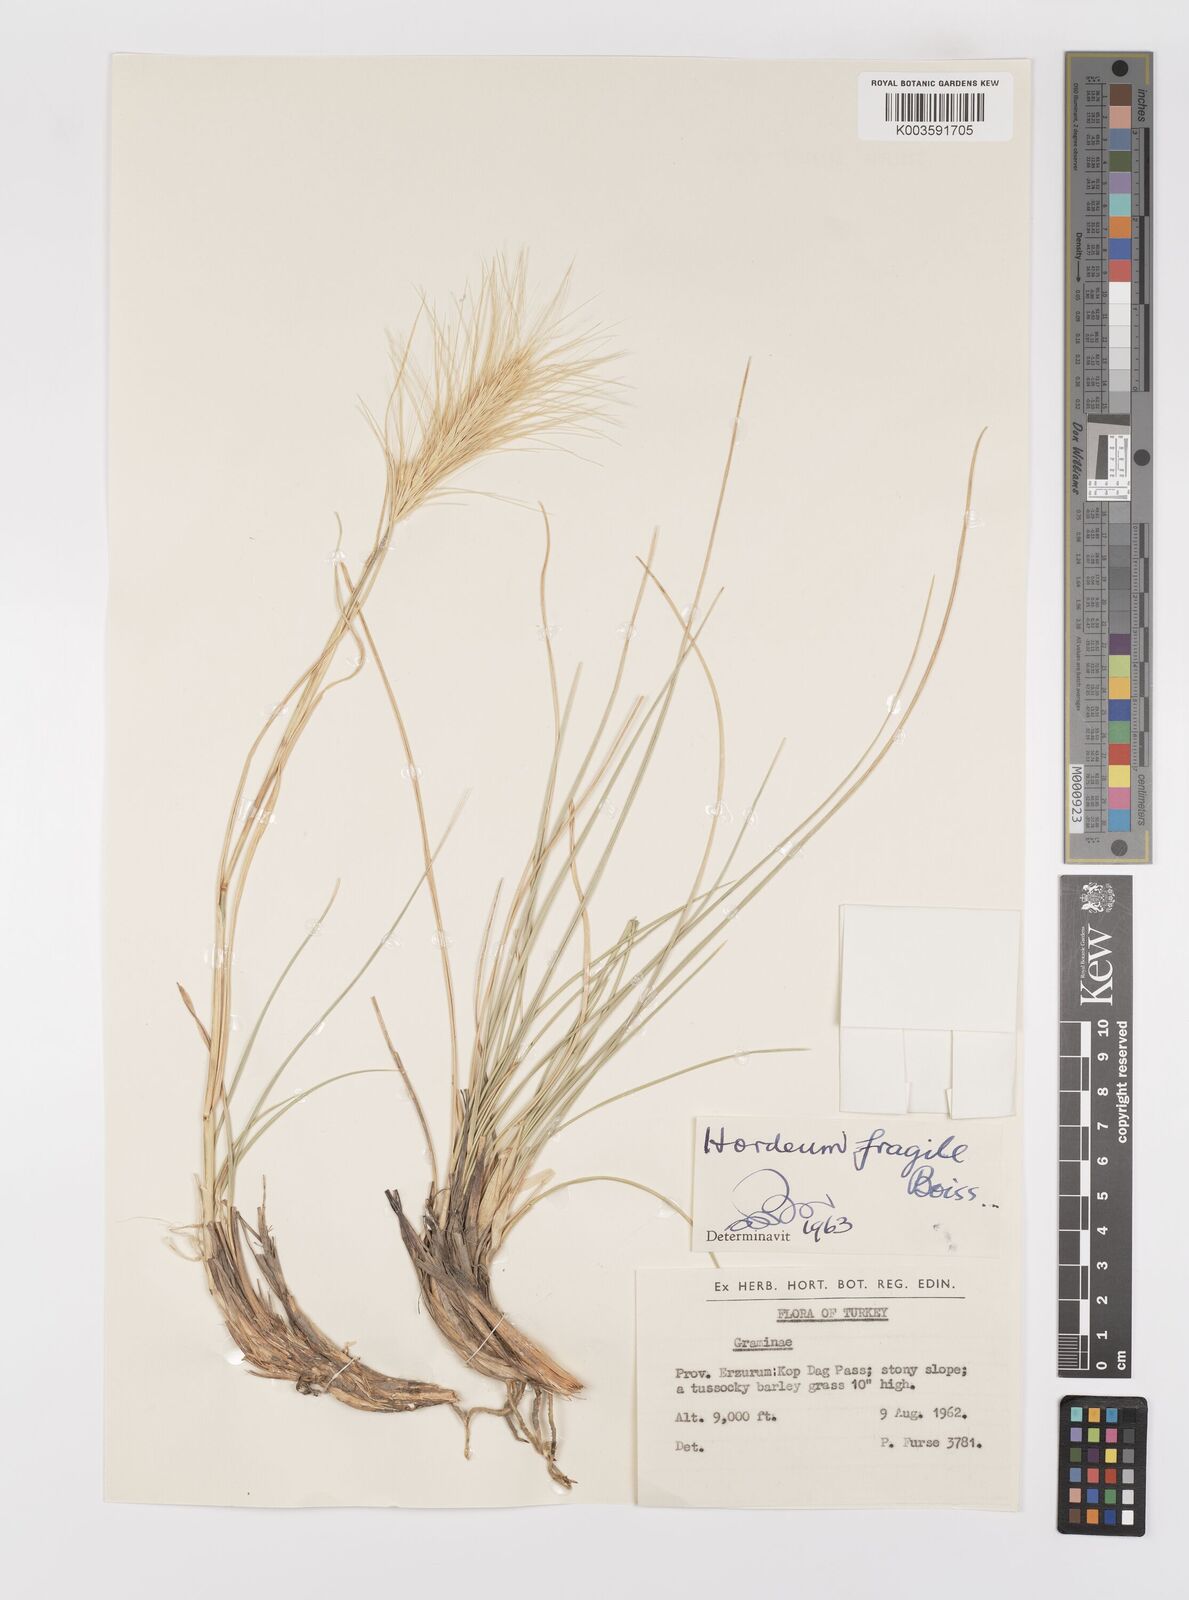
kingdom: Plantae
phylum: Tracheophyta
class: Liliopsida
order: Poales
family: Poaceae
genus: Psathyrostachys
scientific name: Psathyrostachys fragilis
